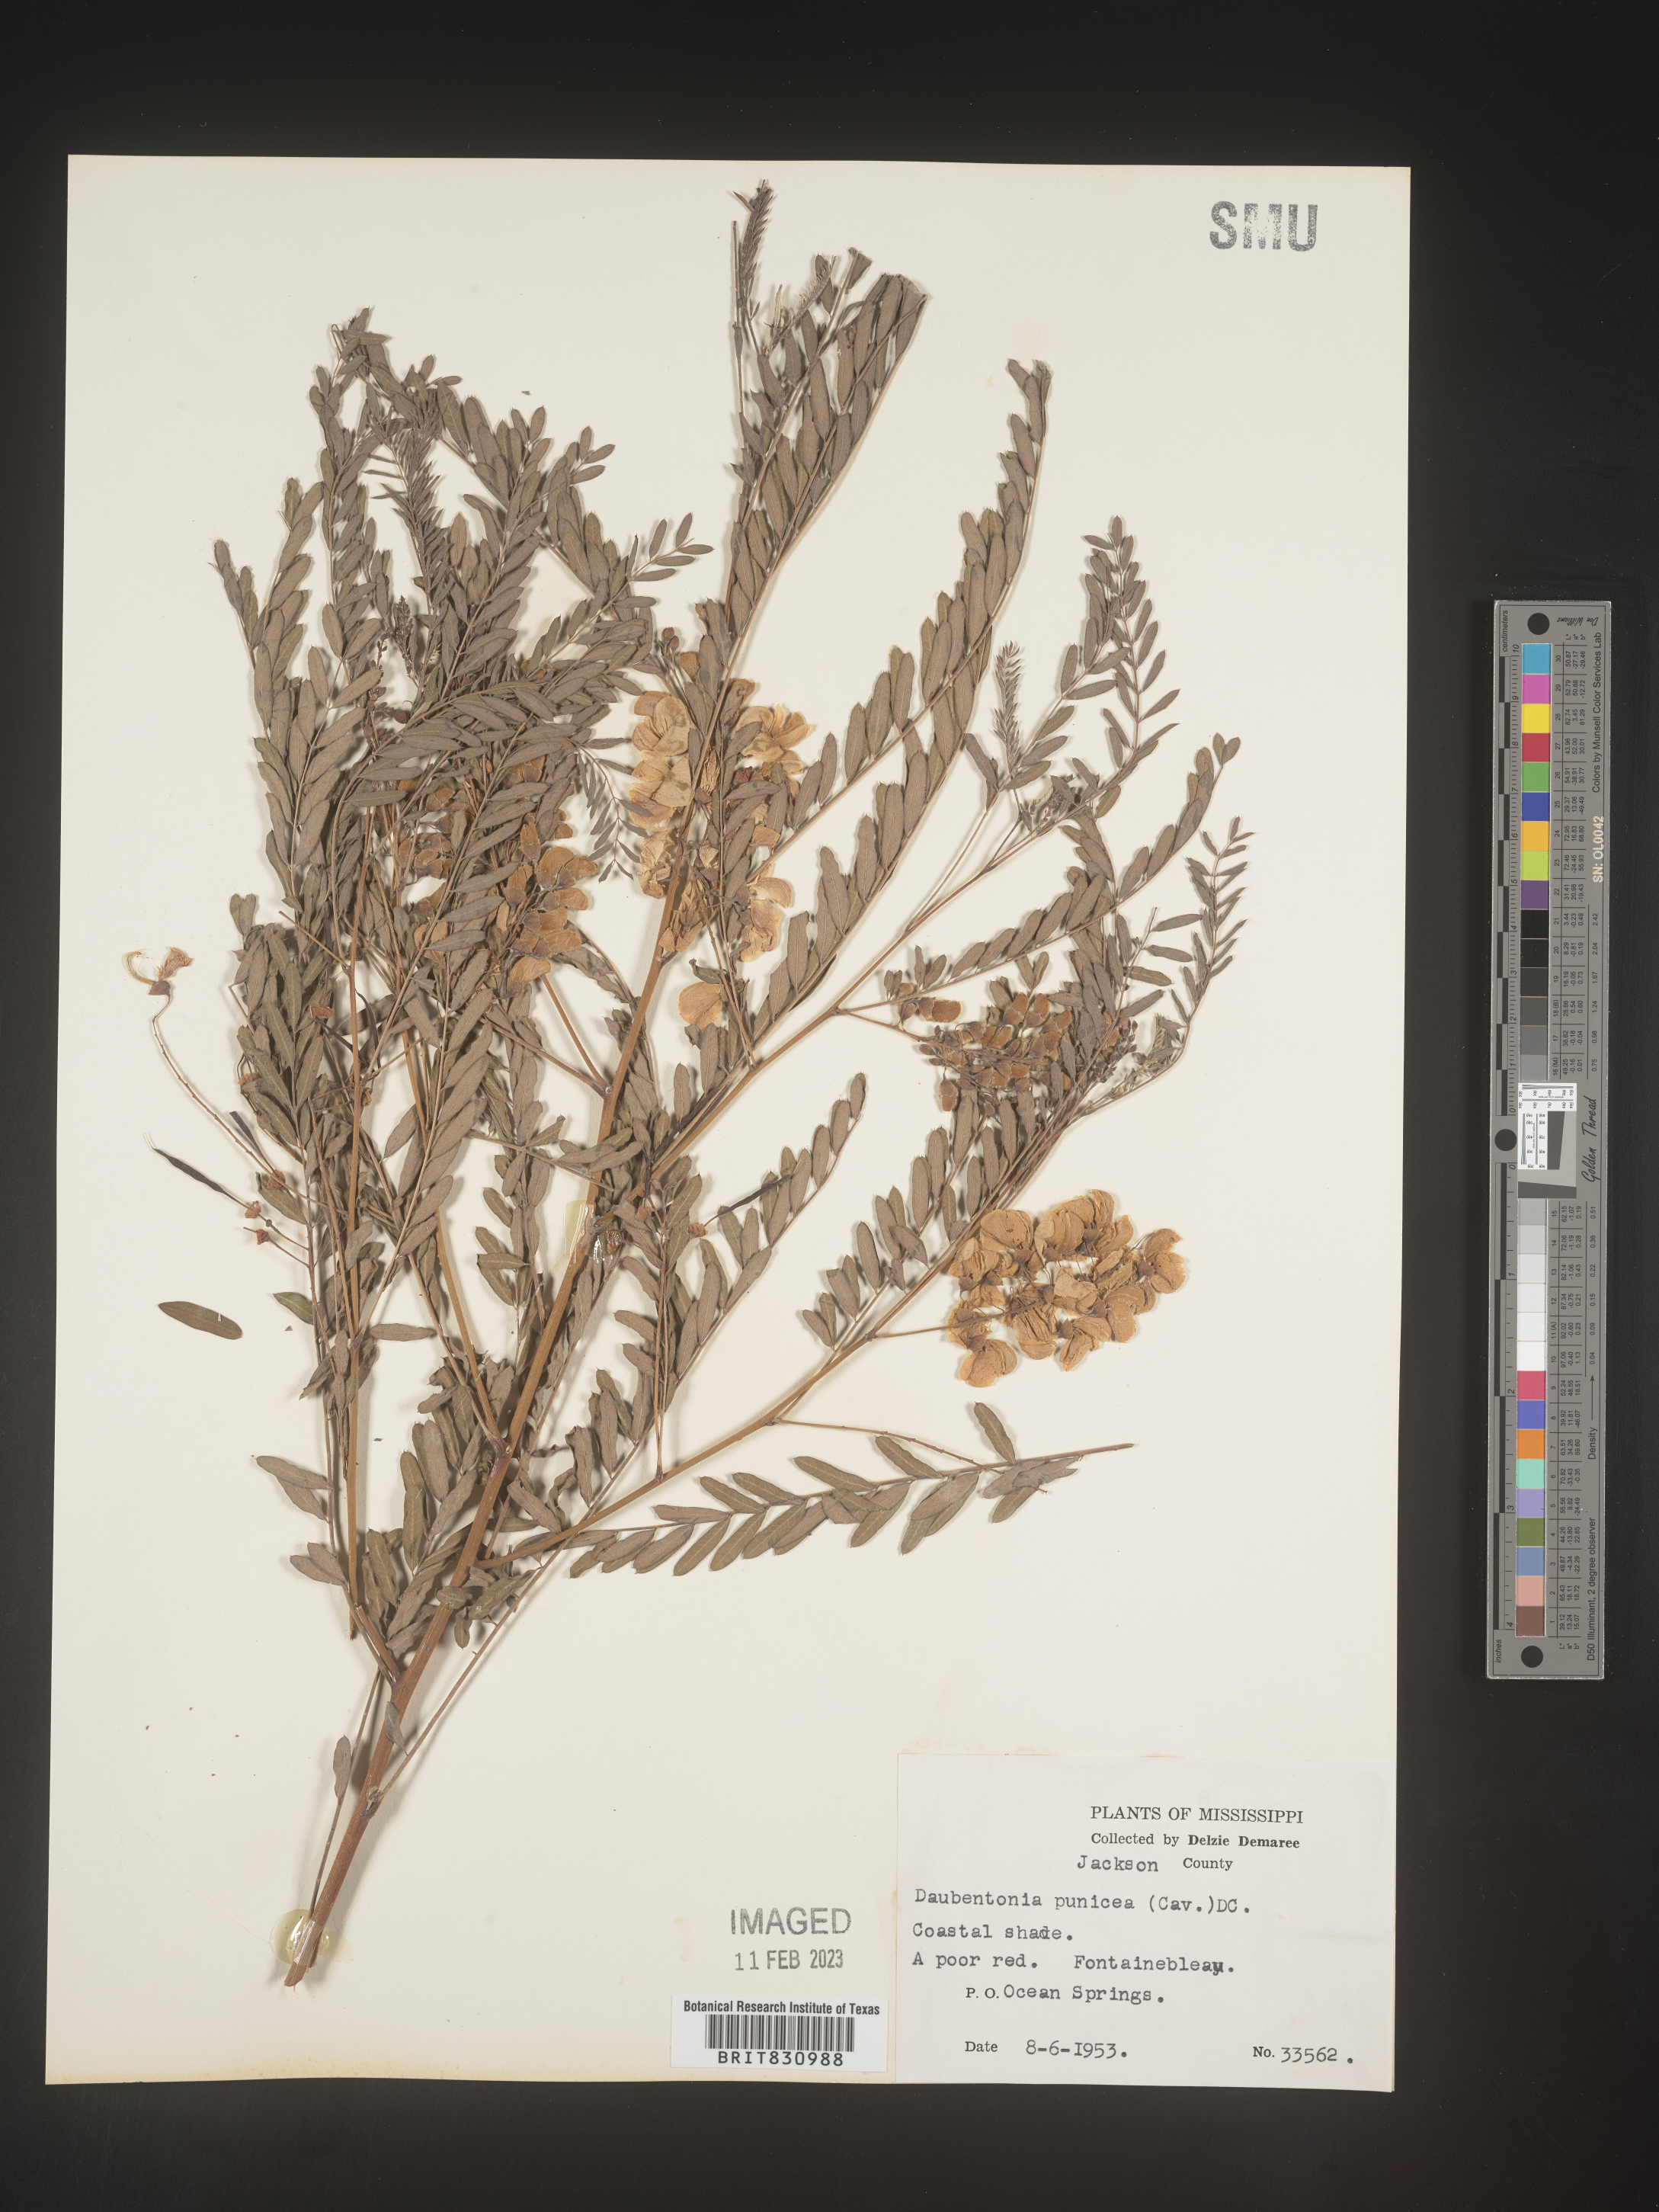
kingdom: Plantae
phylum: Tracheophyta
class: Magnoliopsida
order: Fabales
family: Fabaceae
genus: Sesbania
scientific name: Sesbania punicea
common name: Rattlebox
